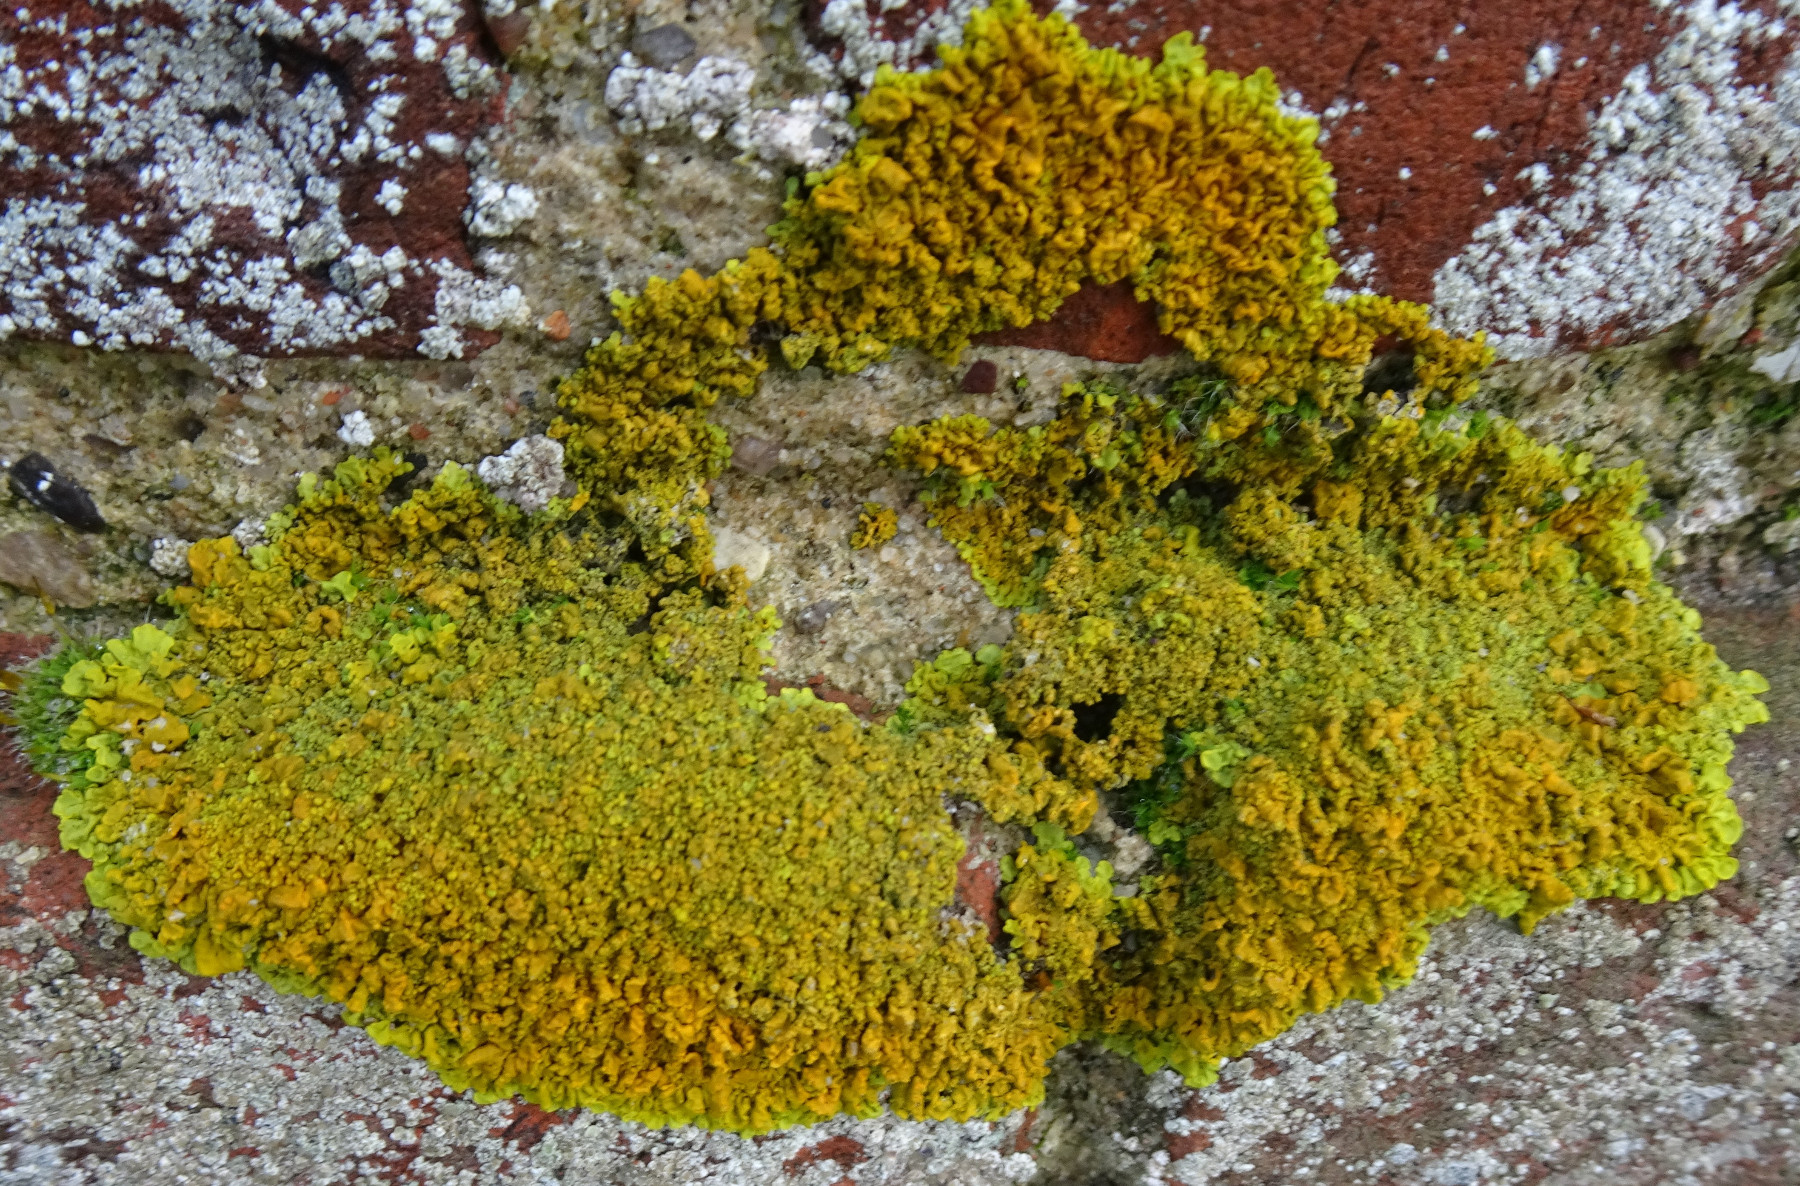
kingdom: Fungi
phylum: Ascomycota
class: Lecanoromycetes
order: Teloschistales
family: Teloschistaceae
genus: Xanthoria
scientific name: Xanthoria calcicola
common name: vortet væggelav
